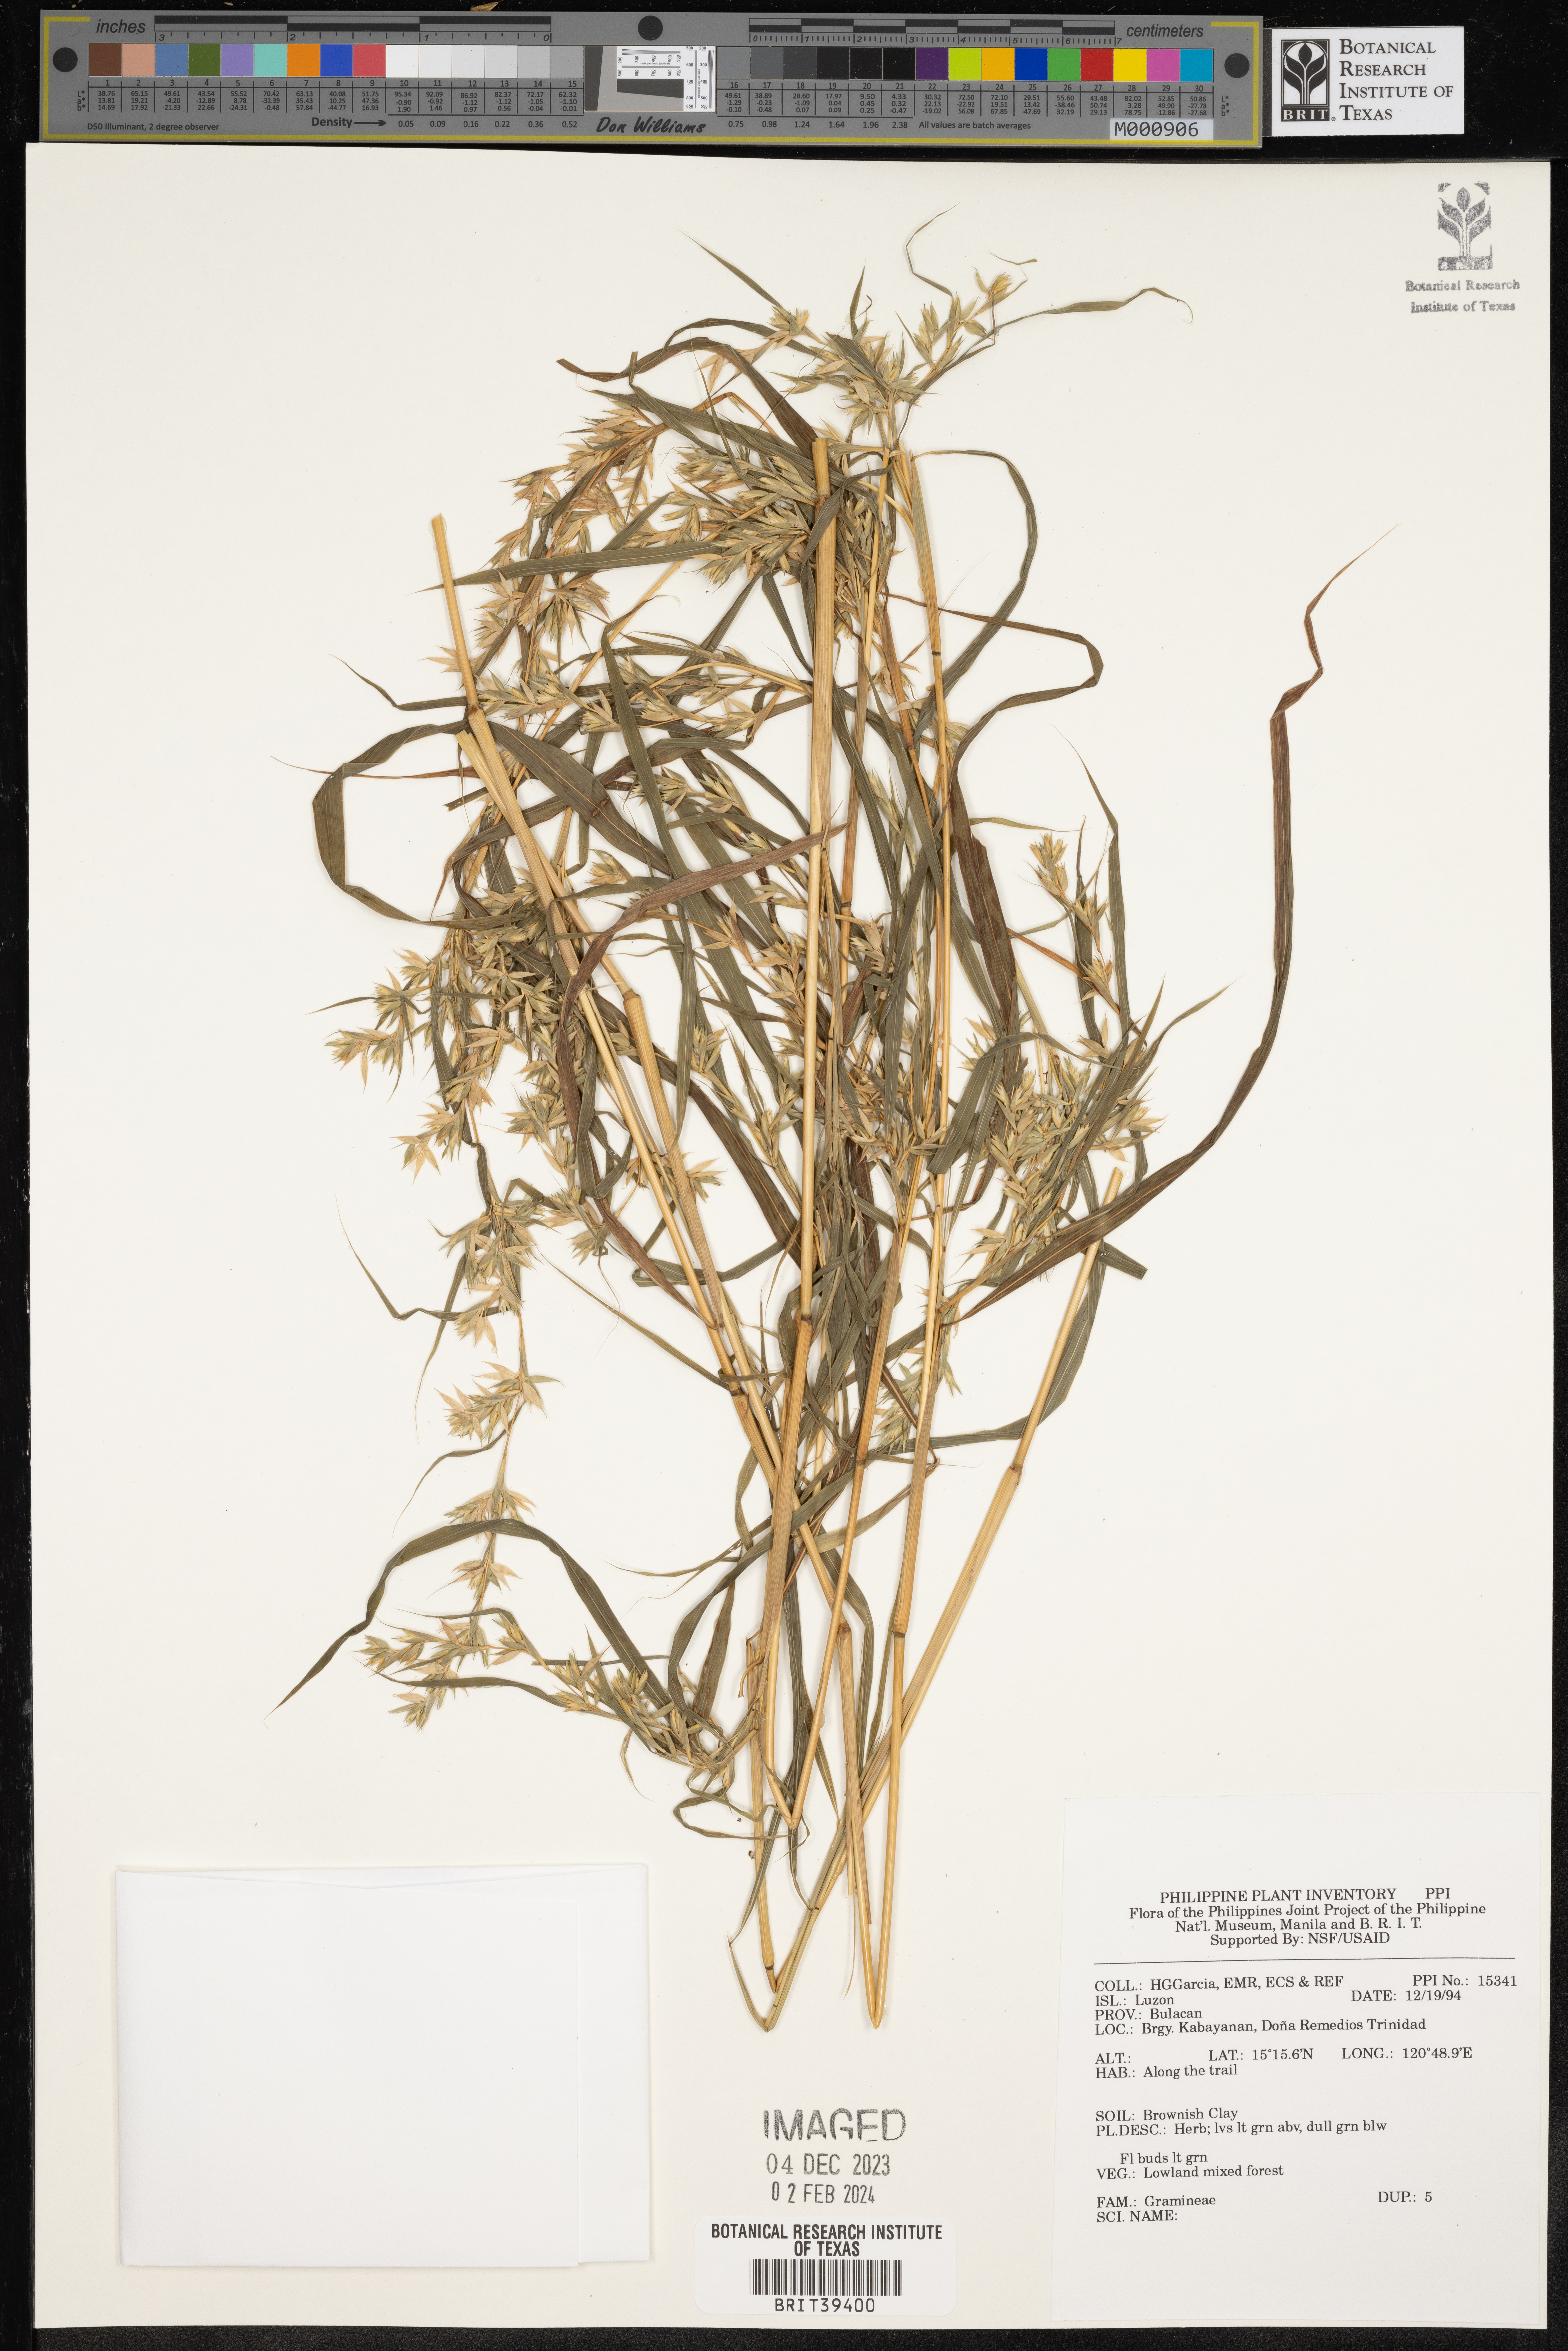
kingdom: Plantae
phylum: Tracheophyta
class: Liliopsida
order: Poales
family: Poaceae
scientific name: Poaceae
